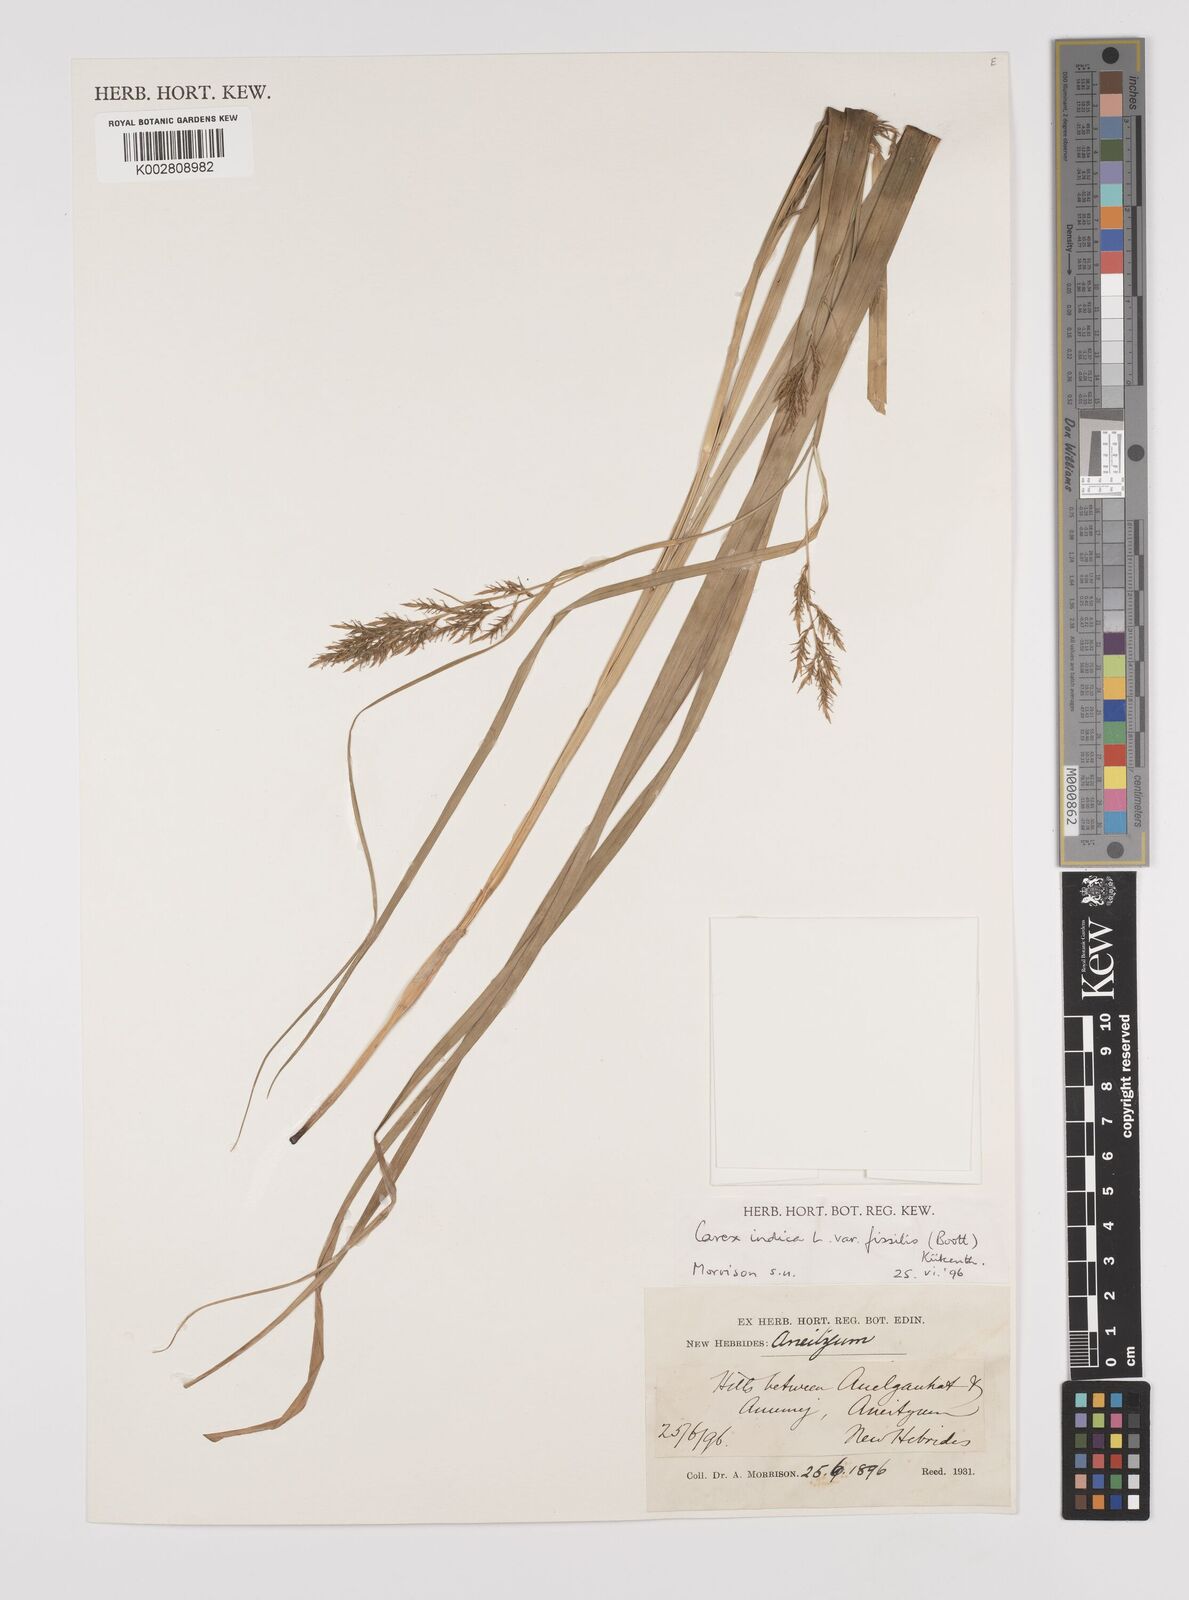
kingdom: Plantae
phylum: Tracheophyta
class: Liliopsida
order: Poales
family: Cyperaceae
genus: Carex
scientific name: Carex indica
